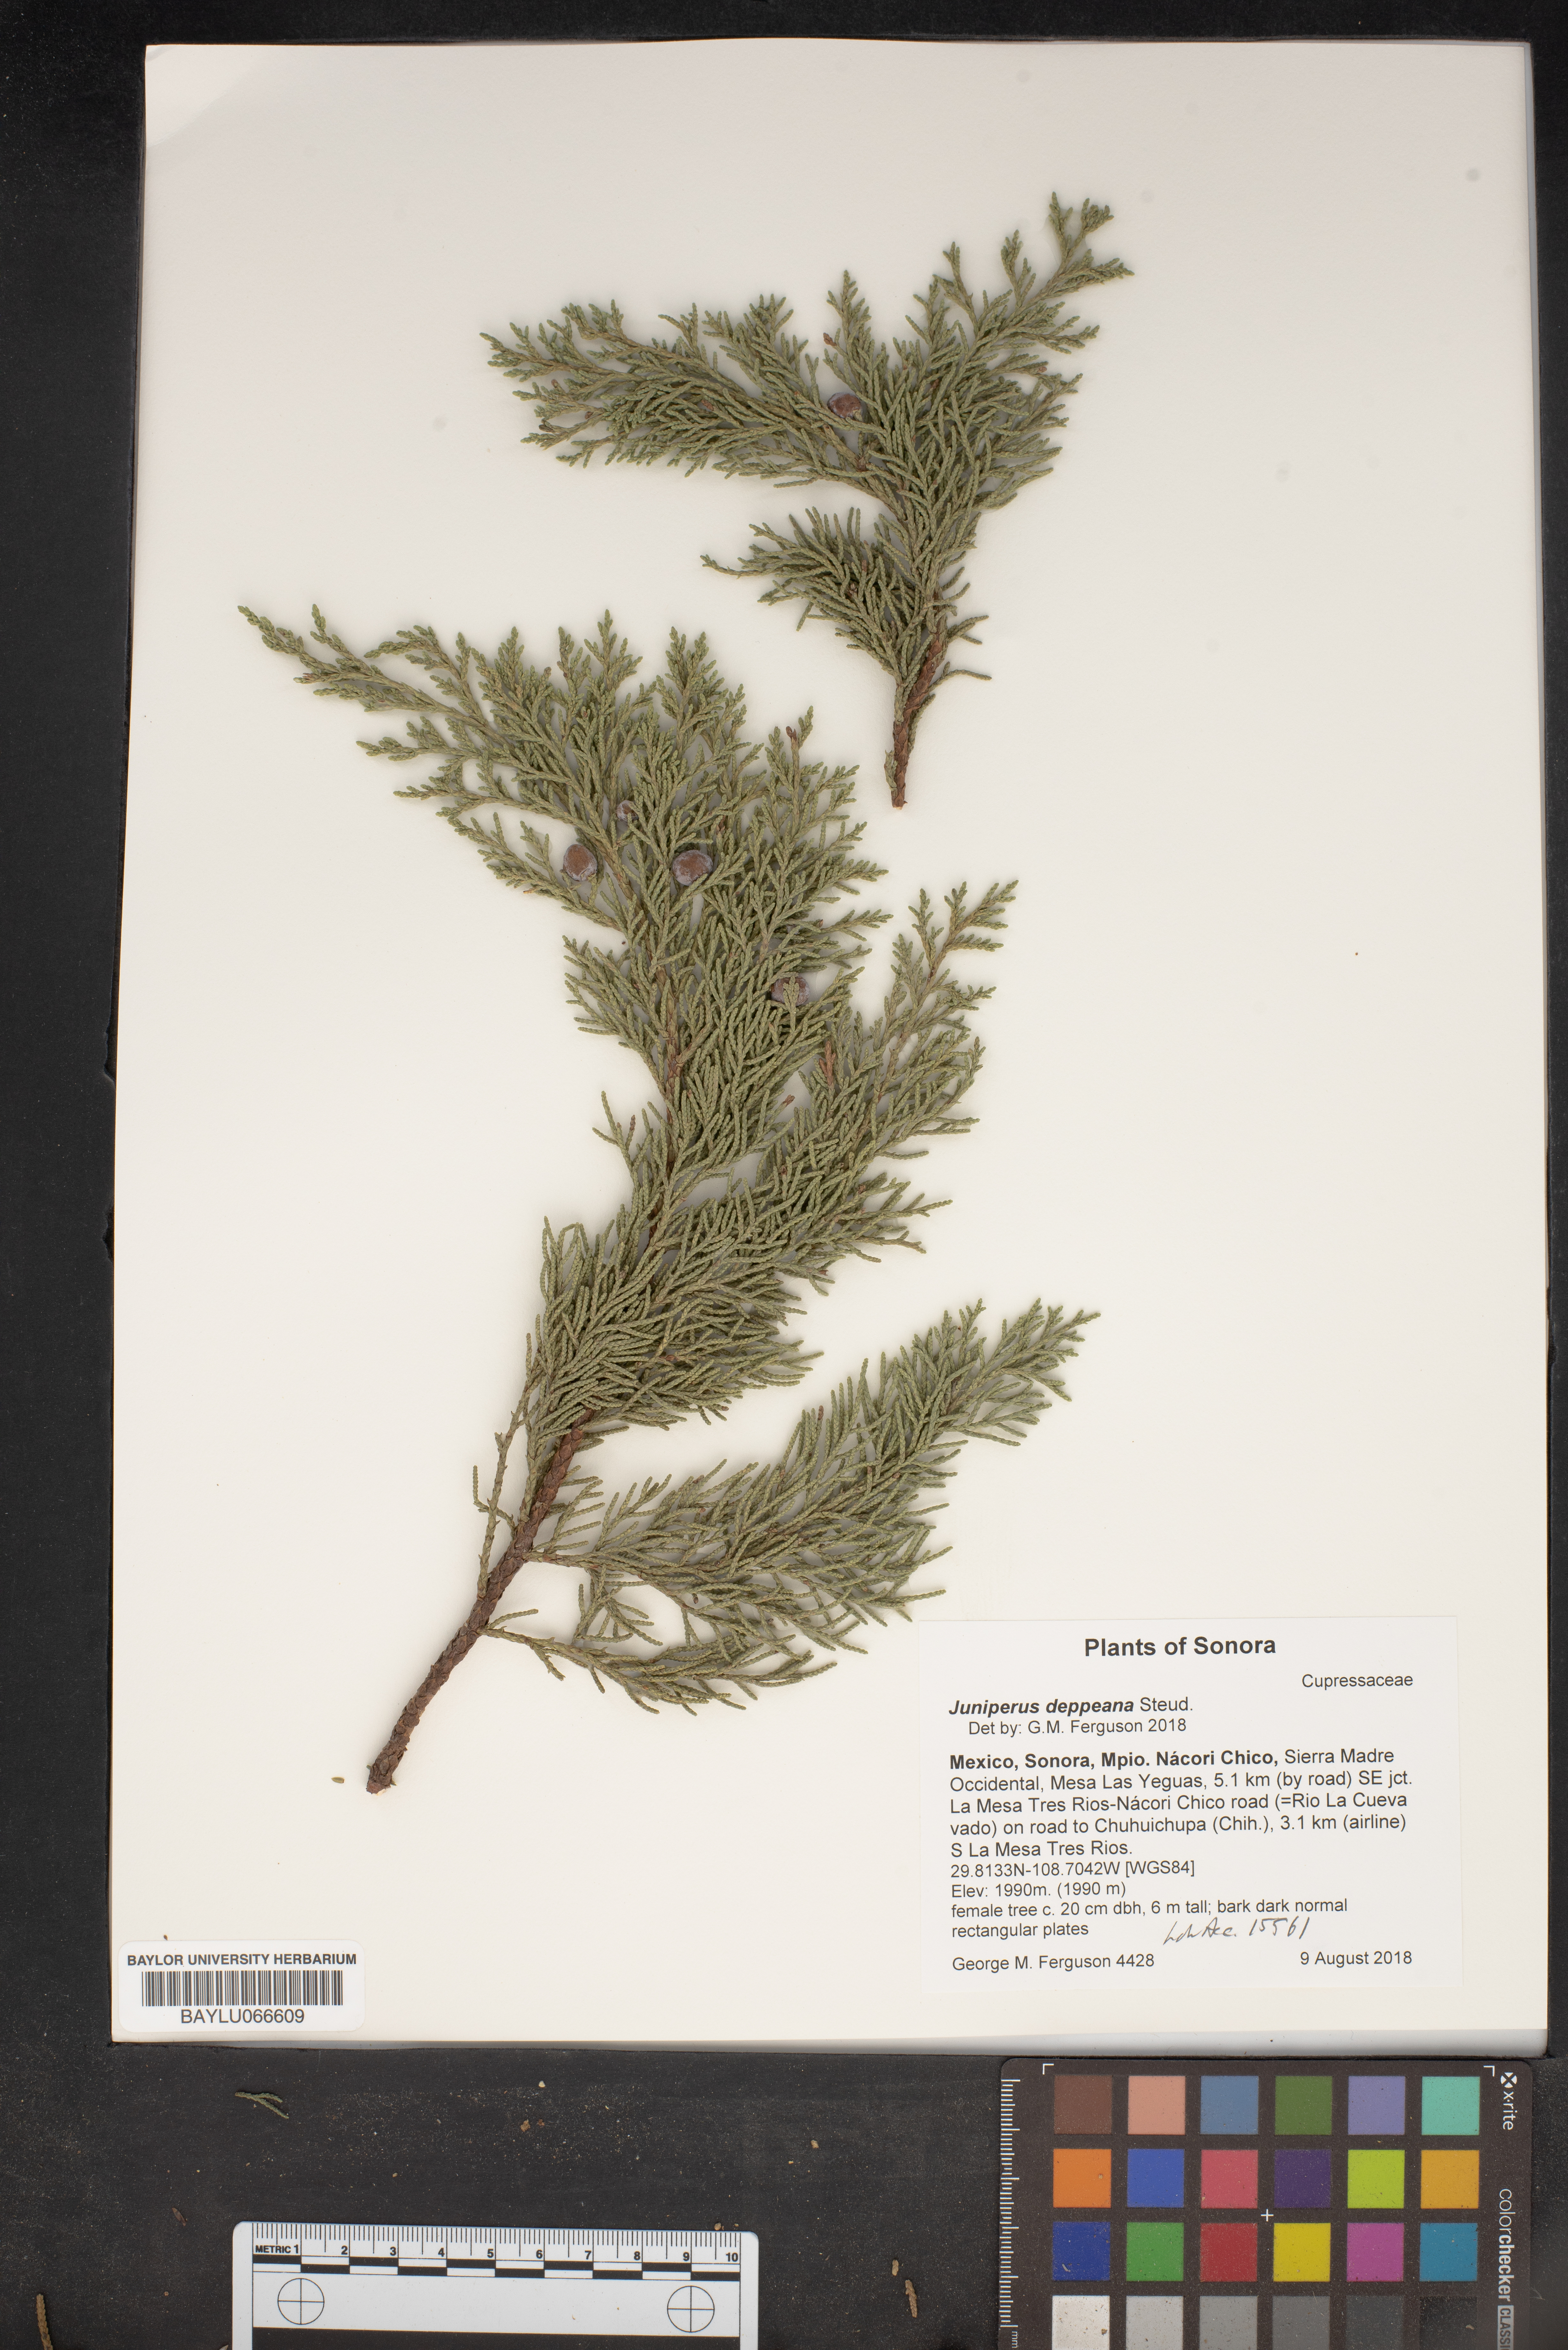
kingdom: Plantae
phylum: Tracheophyta
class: Pinopsida
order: Pinales
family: Cupressaceae
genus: Juniperus
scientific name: Juniperus deppeana
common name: Alligator juniper
